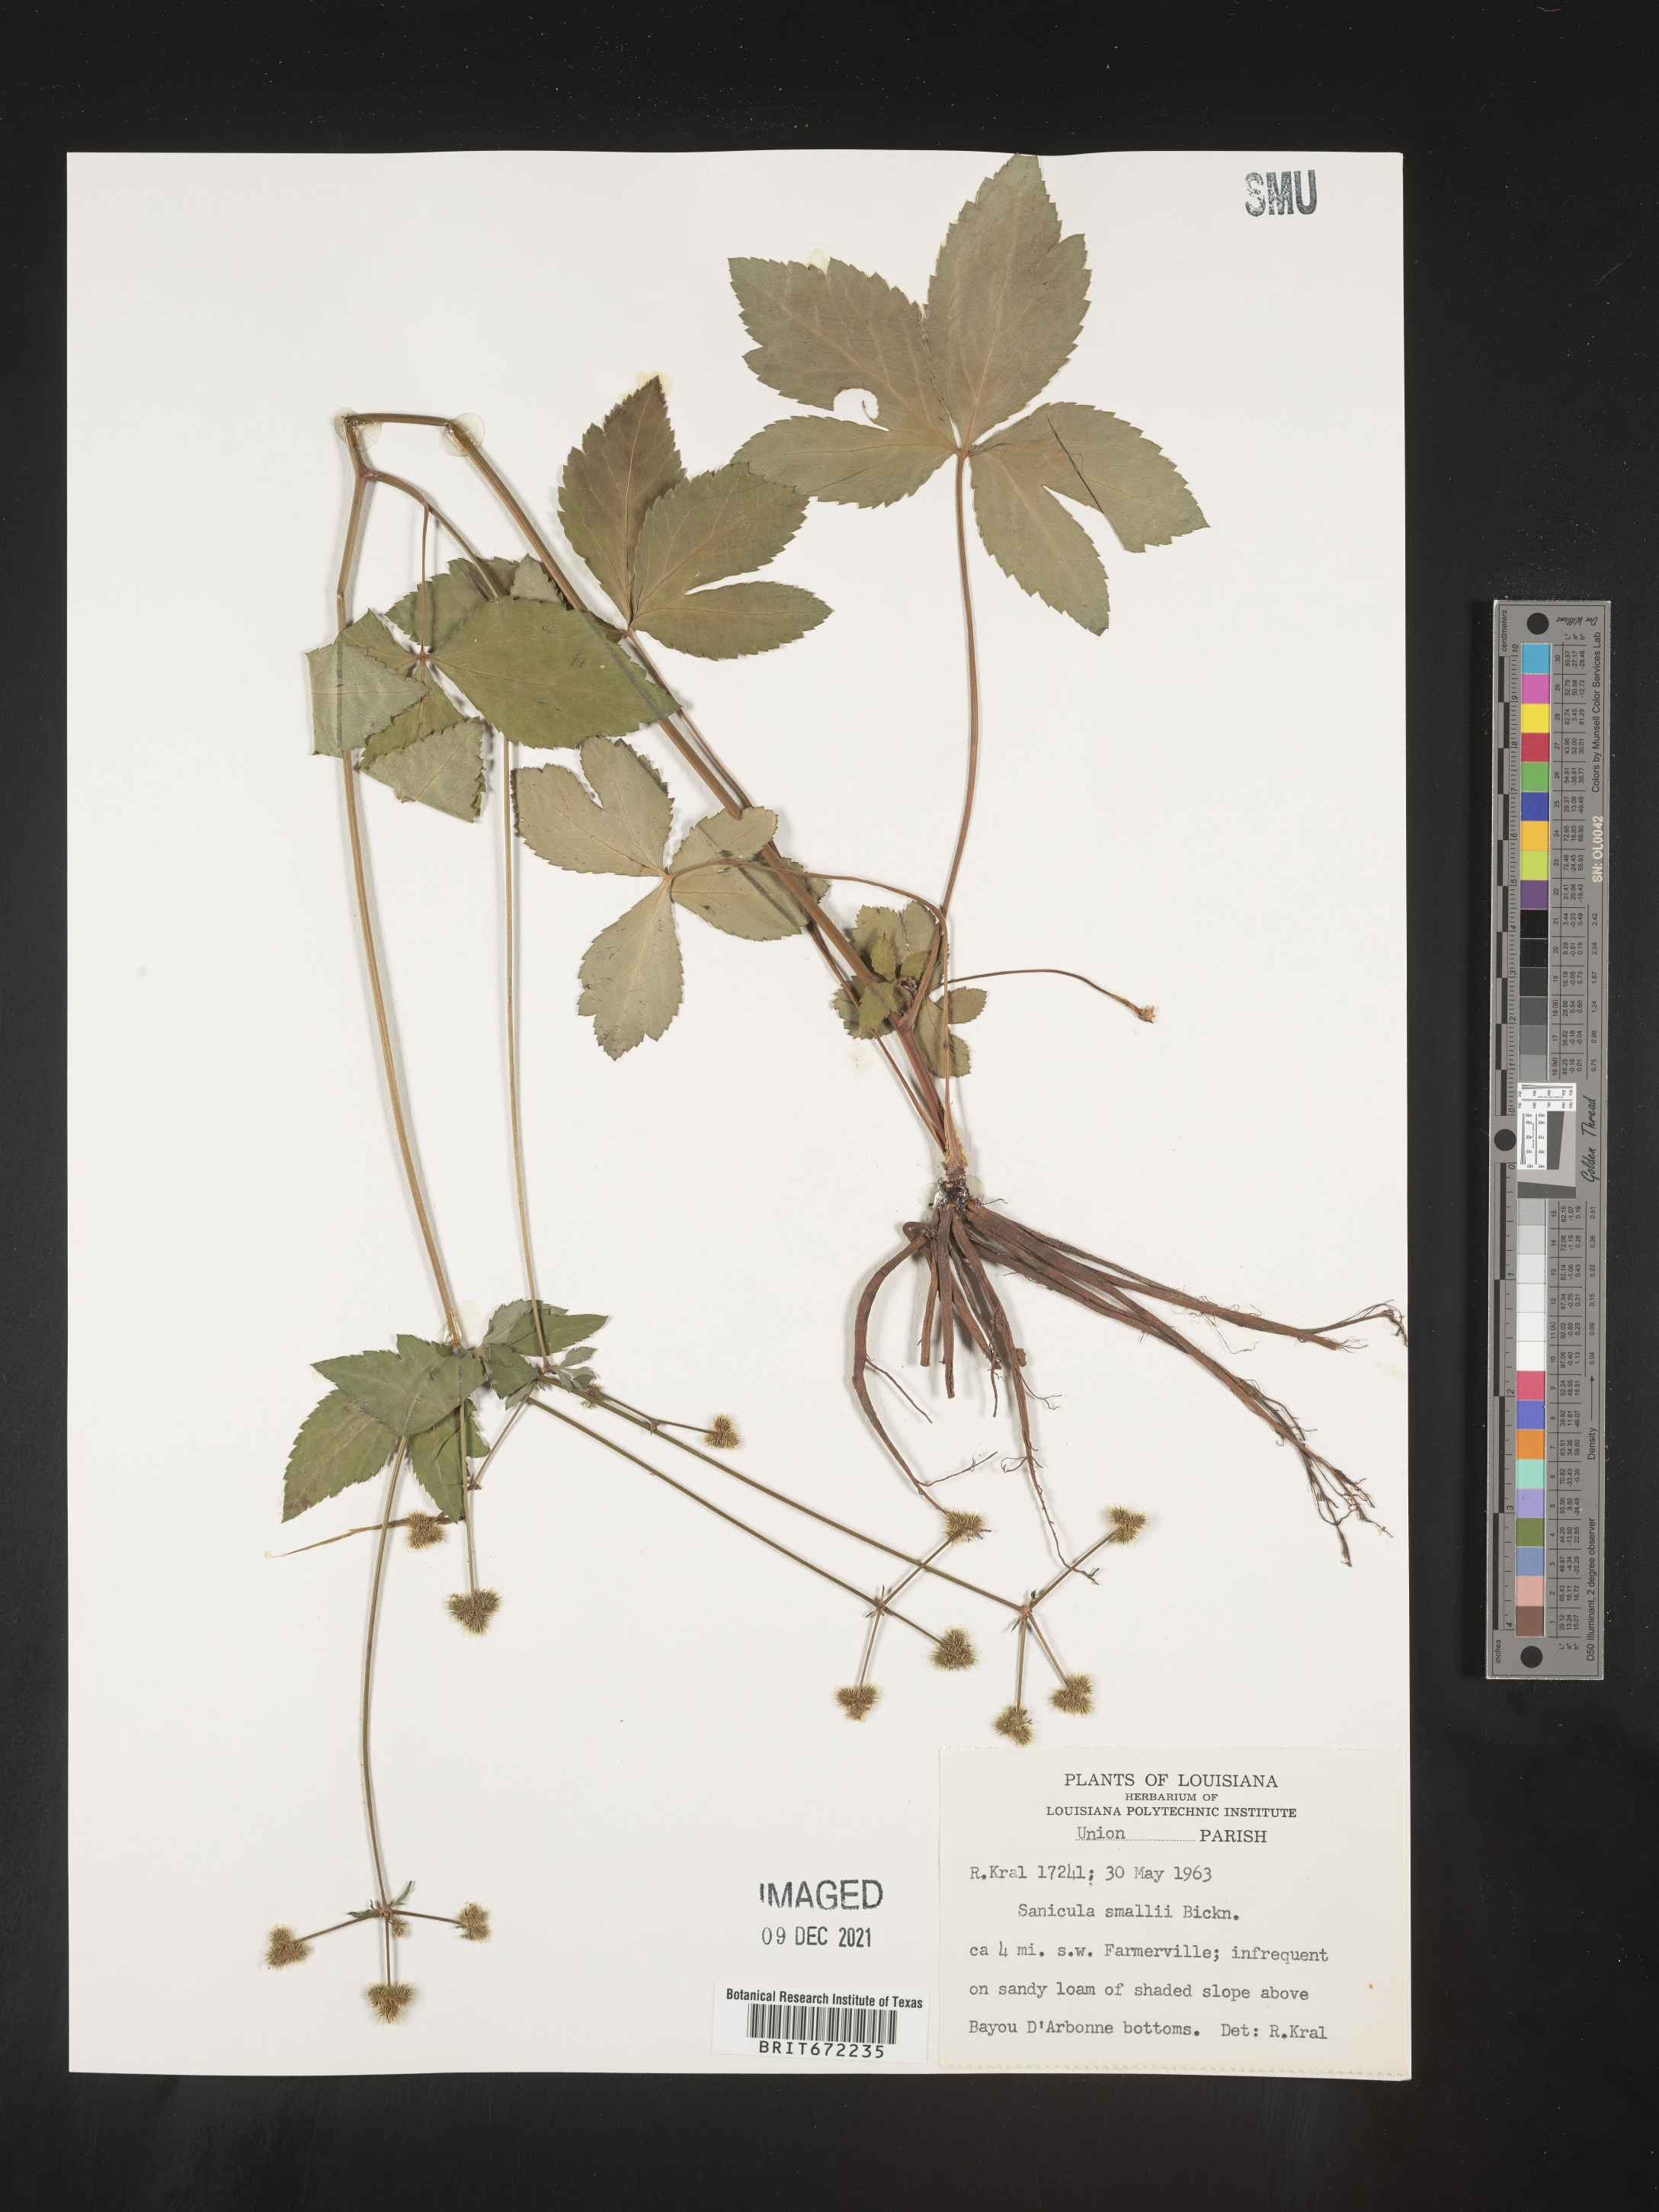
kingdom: Plantae
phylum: Tracheophyta
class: Magnoliopsida
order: Apiales
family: Apiaceae
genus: Sanicula
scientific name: Sanicula
